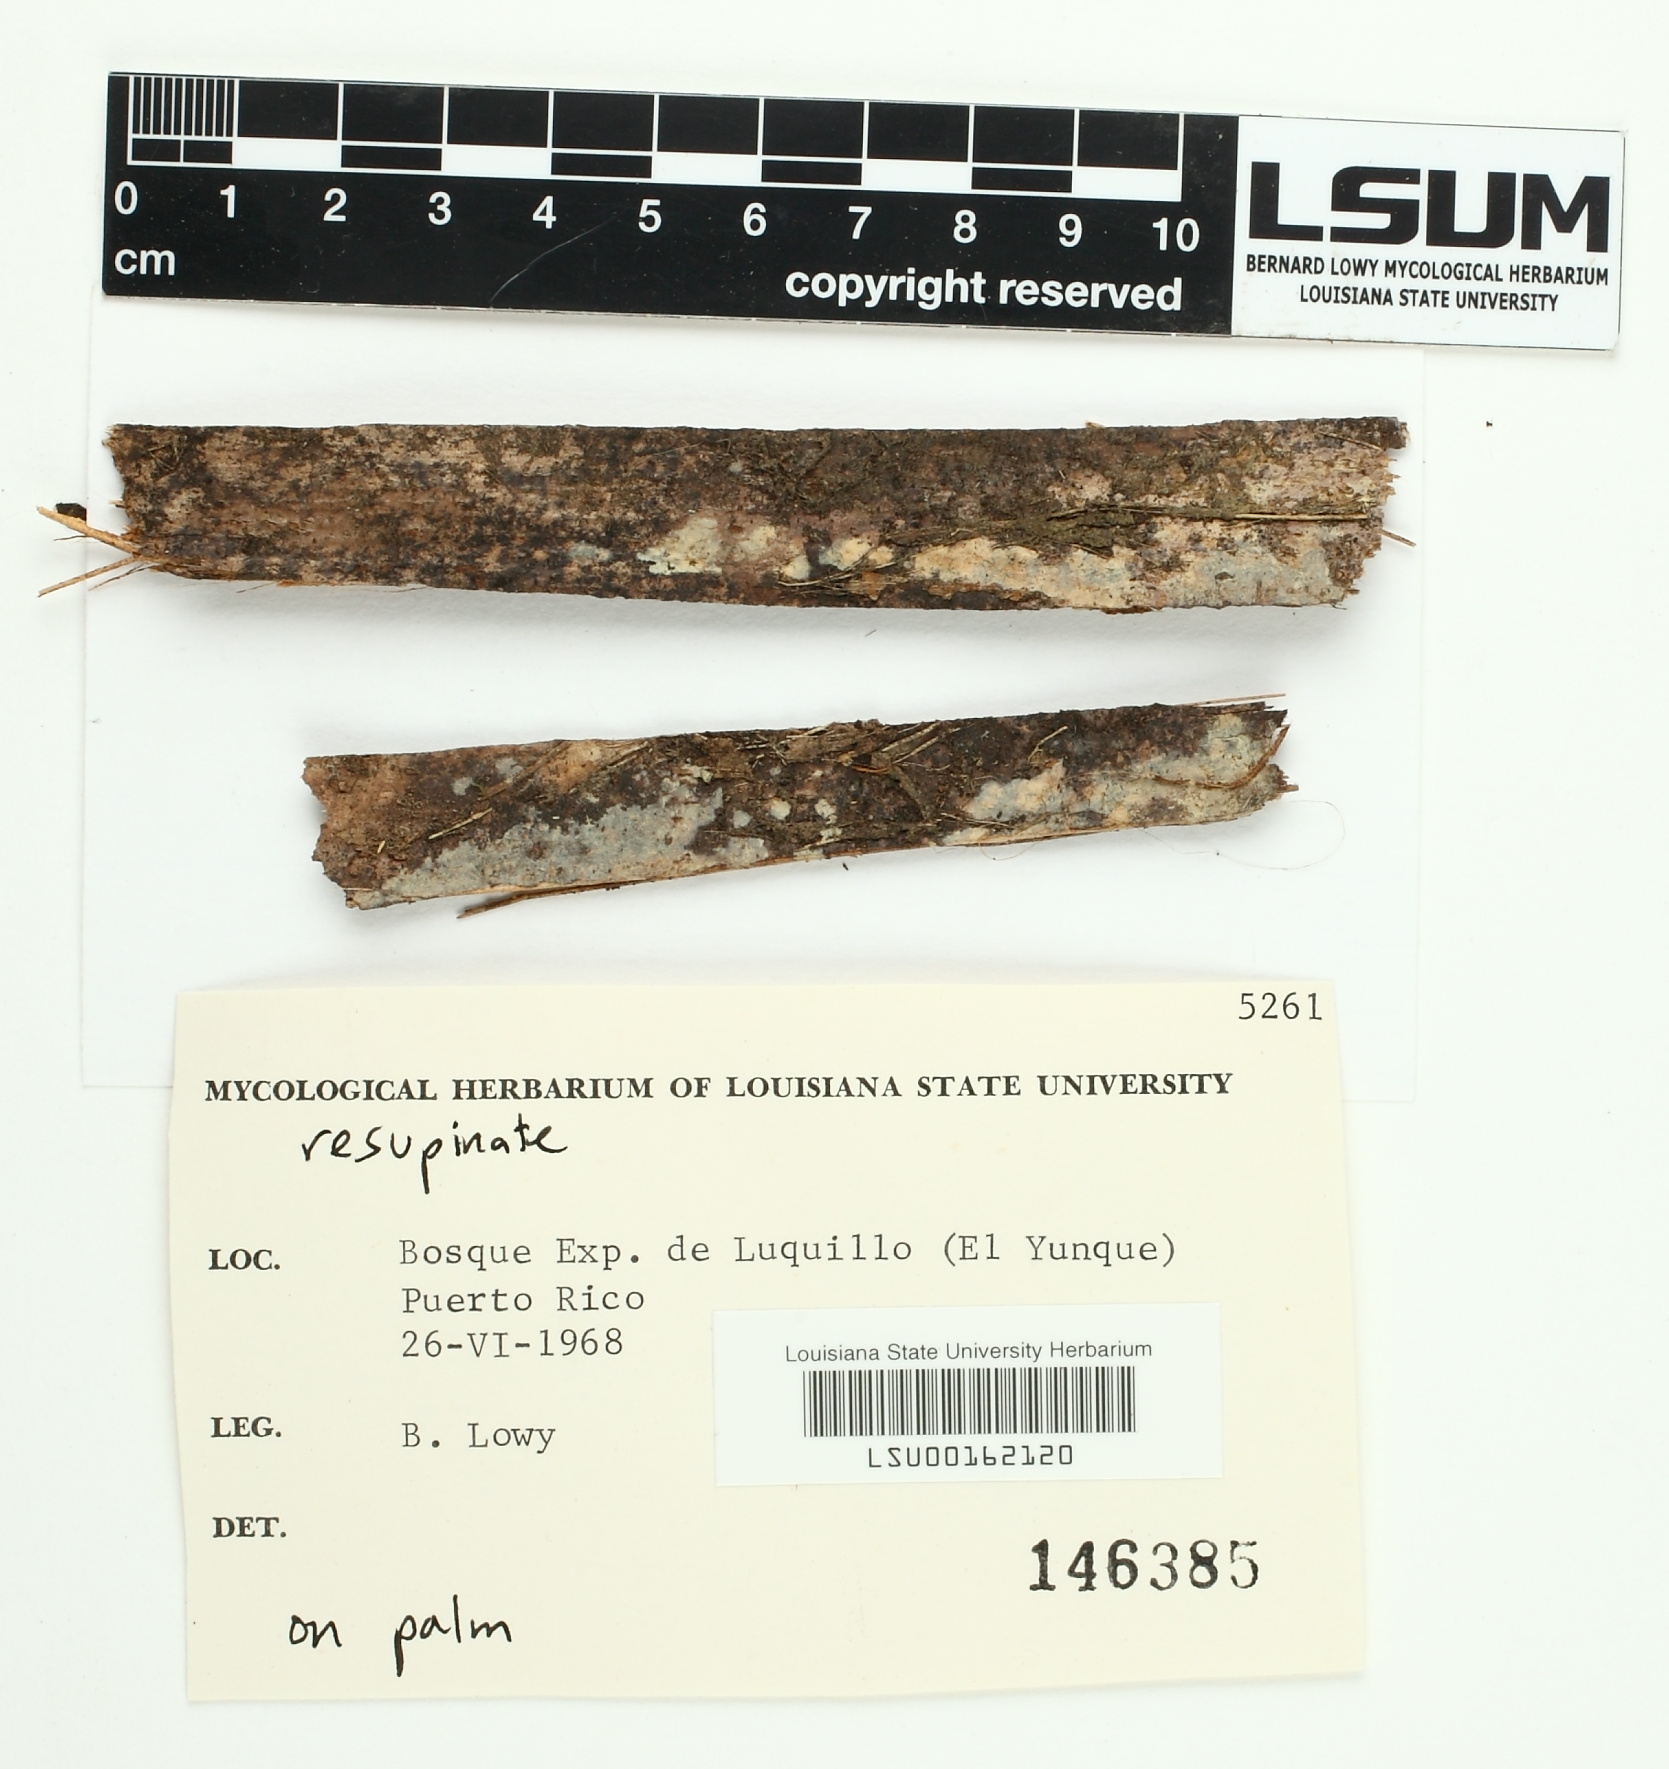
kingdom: Fungi
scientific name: Fungi
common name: Fungi
